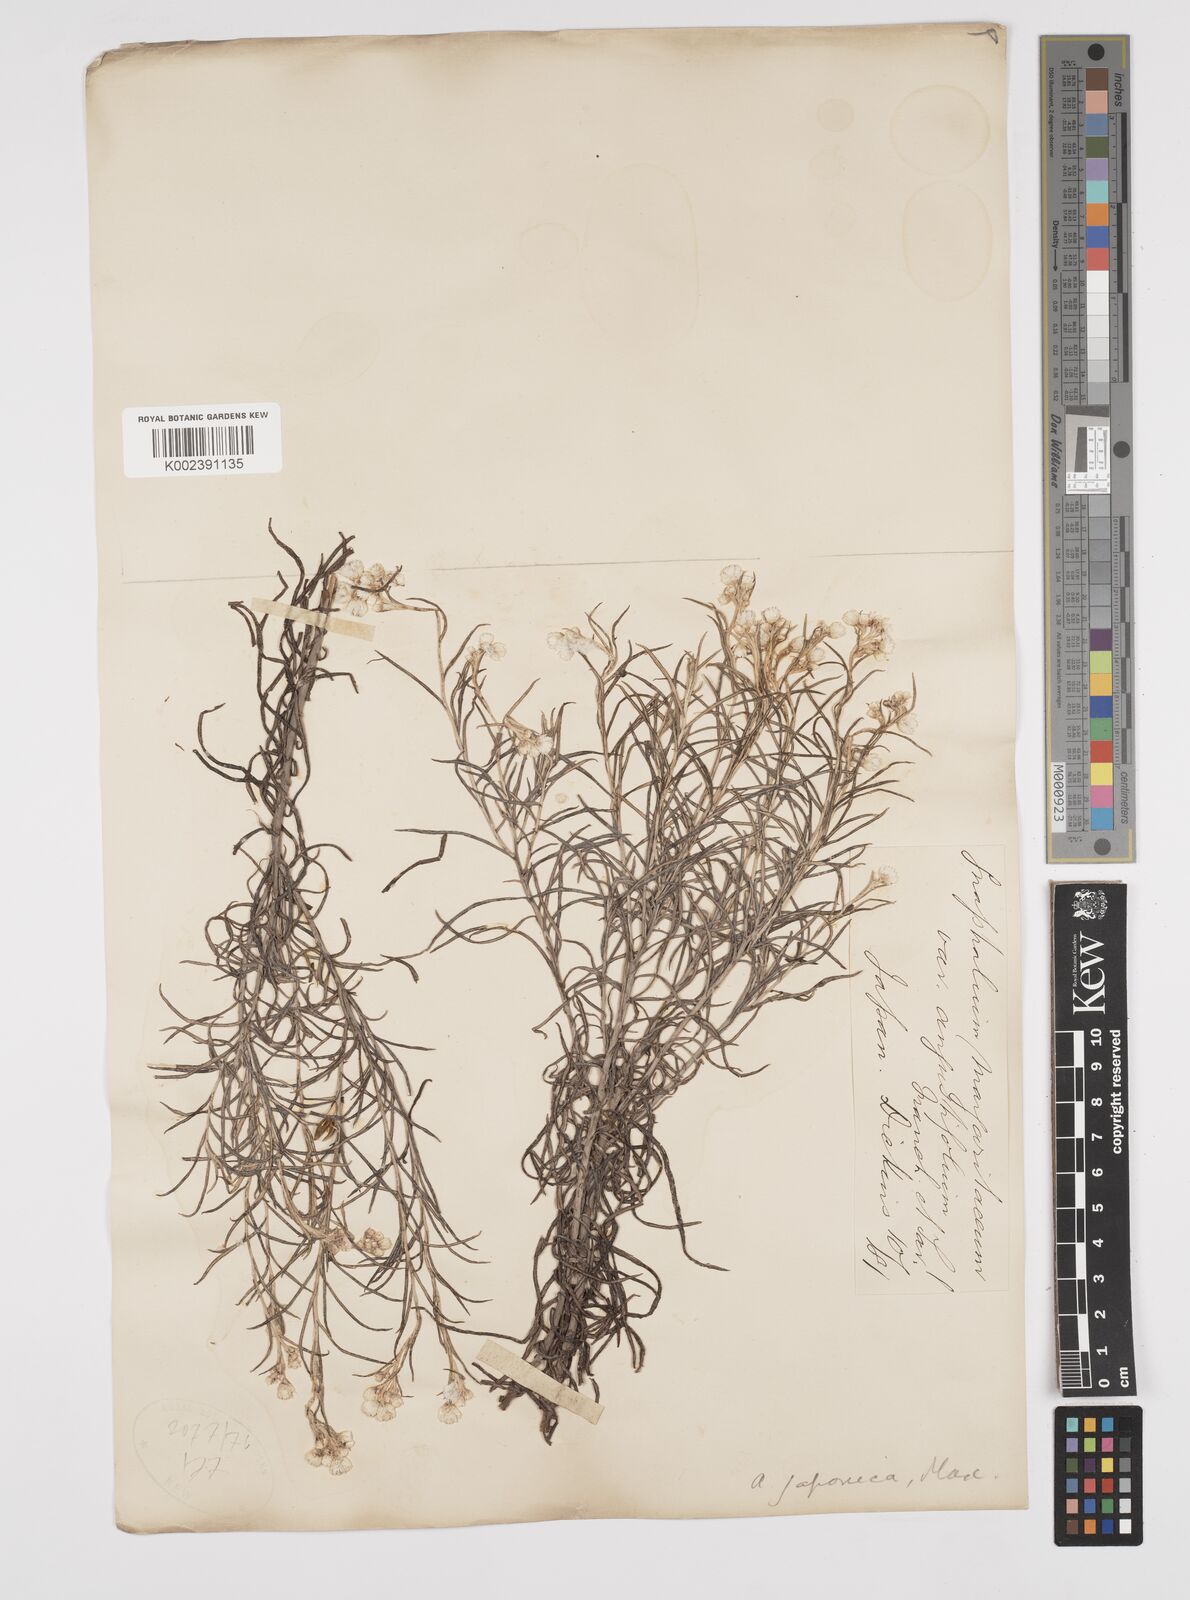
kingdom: Plantae
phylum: Tracheophyta
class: Magnoliopsida
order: Asterales
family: Asteraceae
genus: Anaphalis
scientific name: Anaphalis margaritacea
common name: Pearly everlasting
